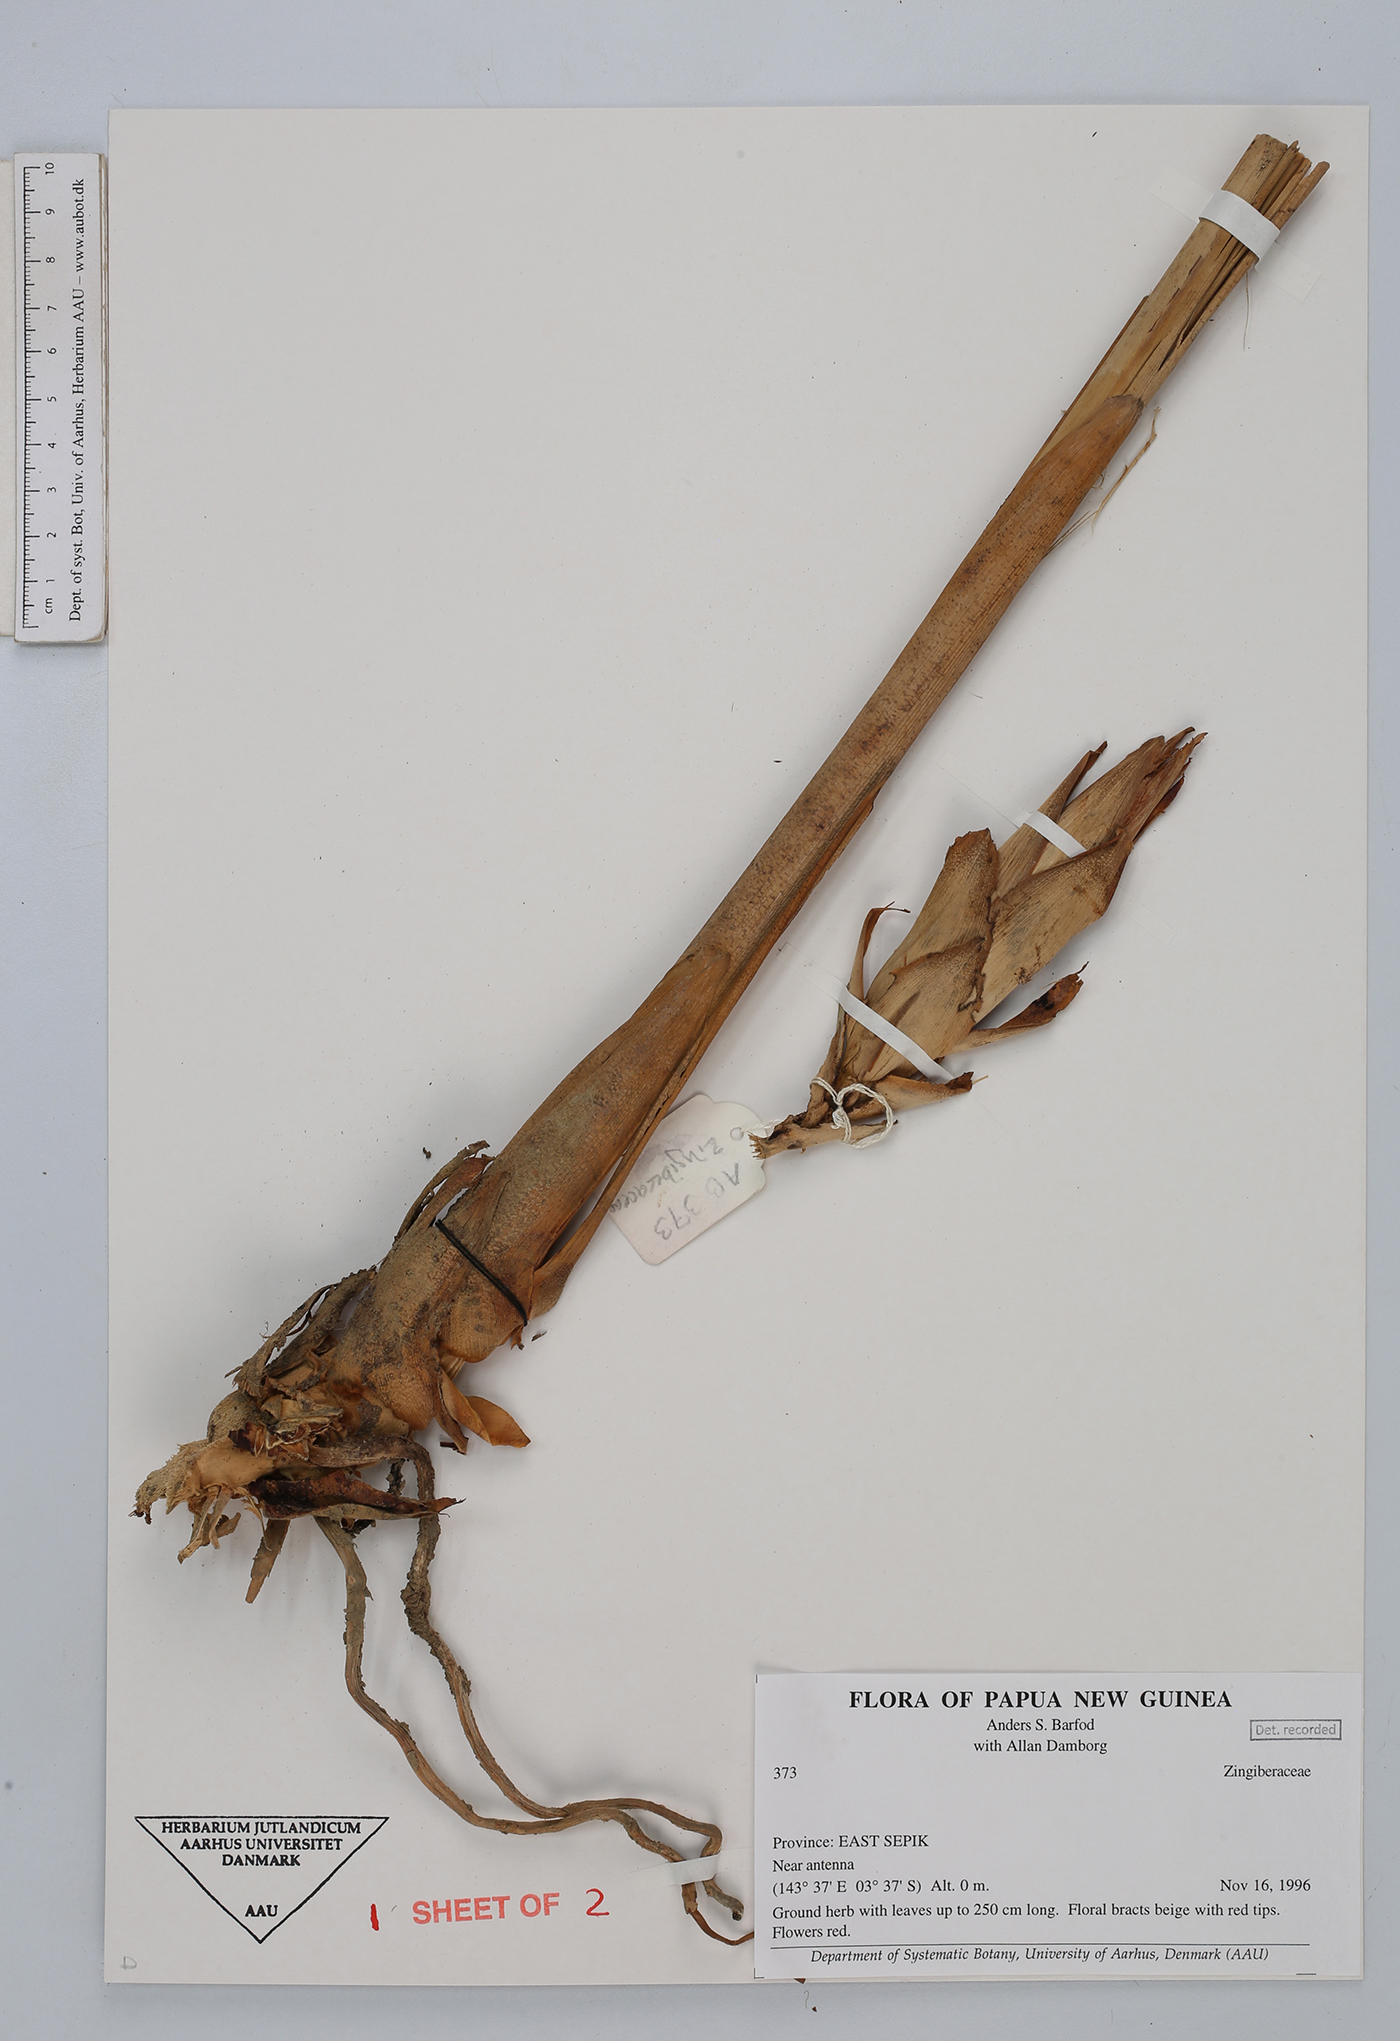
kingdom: Plantae
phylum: Tracheophyta
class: Liliopsida
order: Zingiberales
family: Zingiberaceae
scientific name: Zingiberaceae
